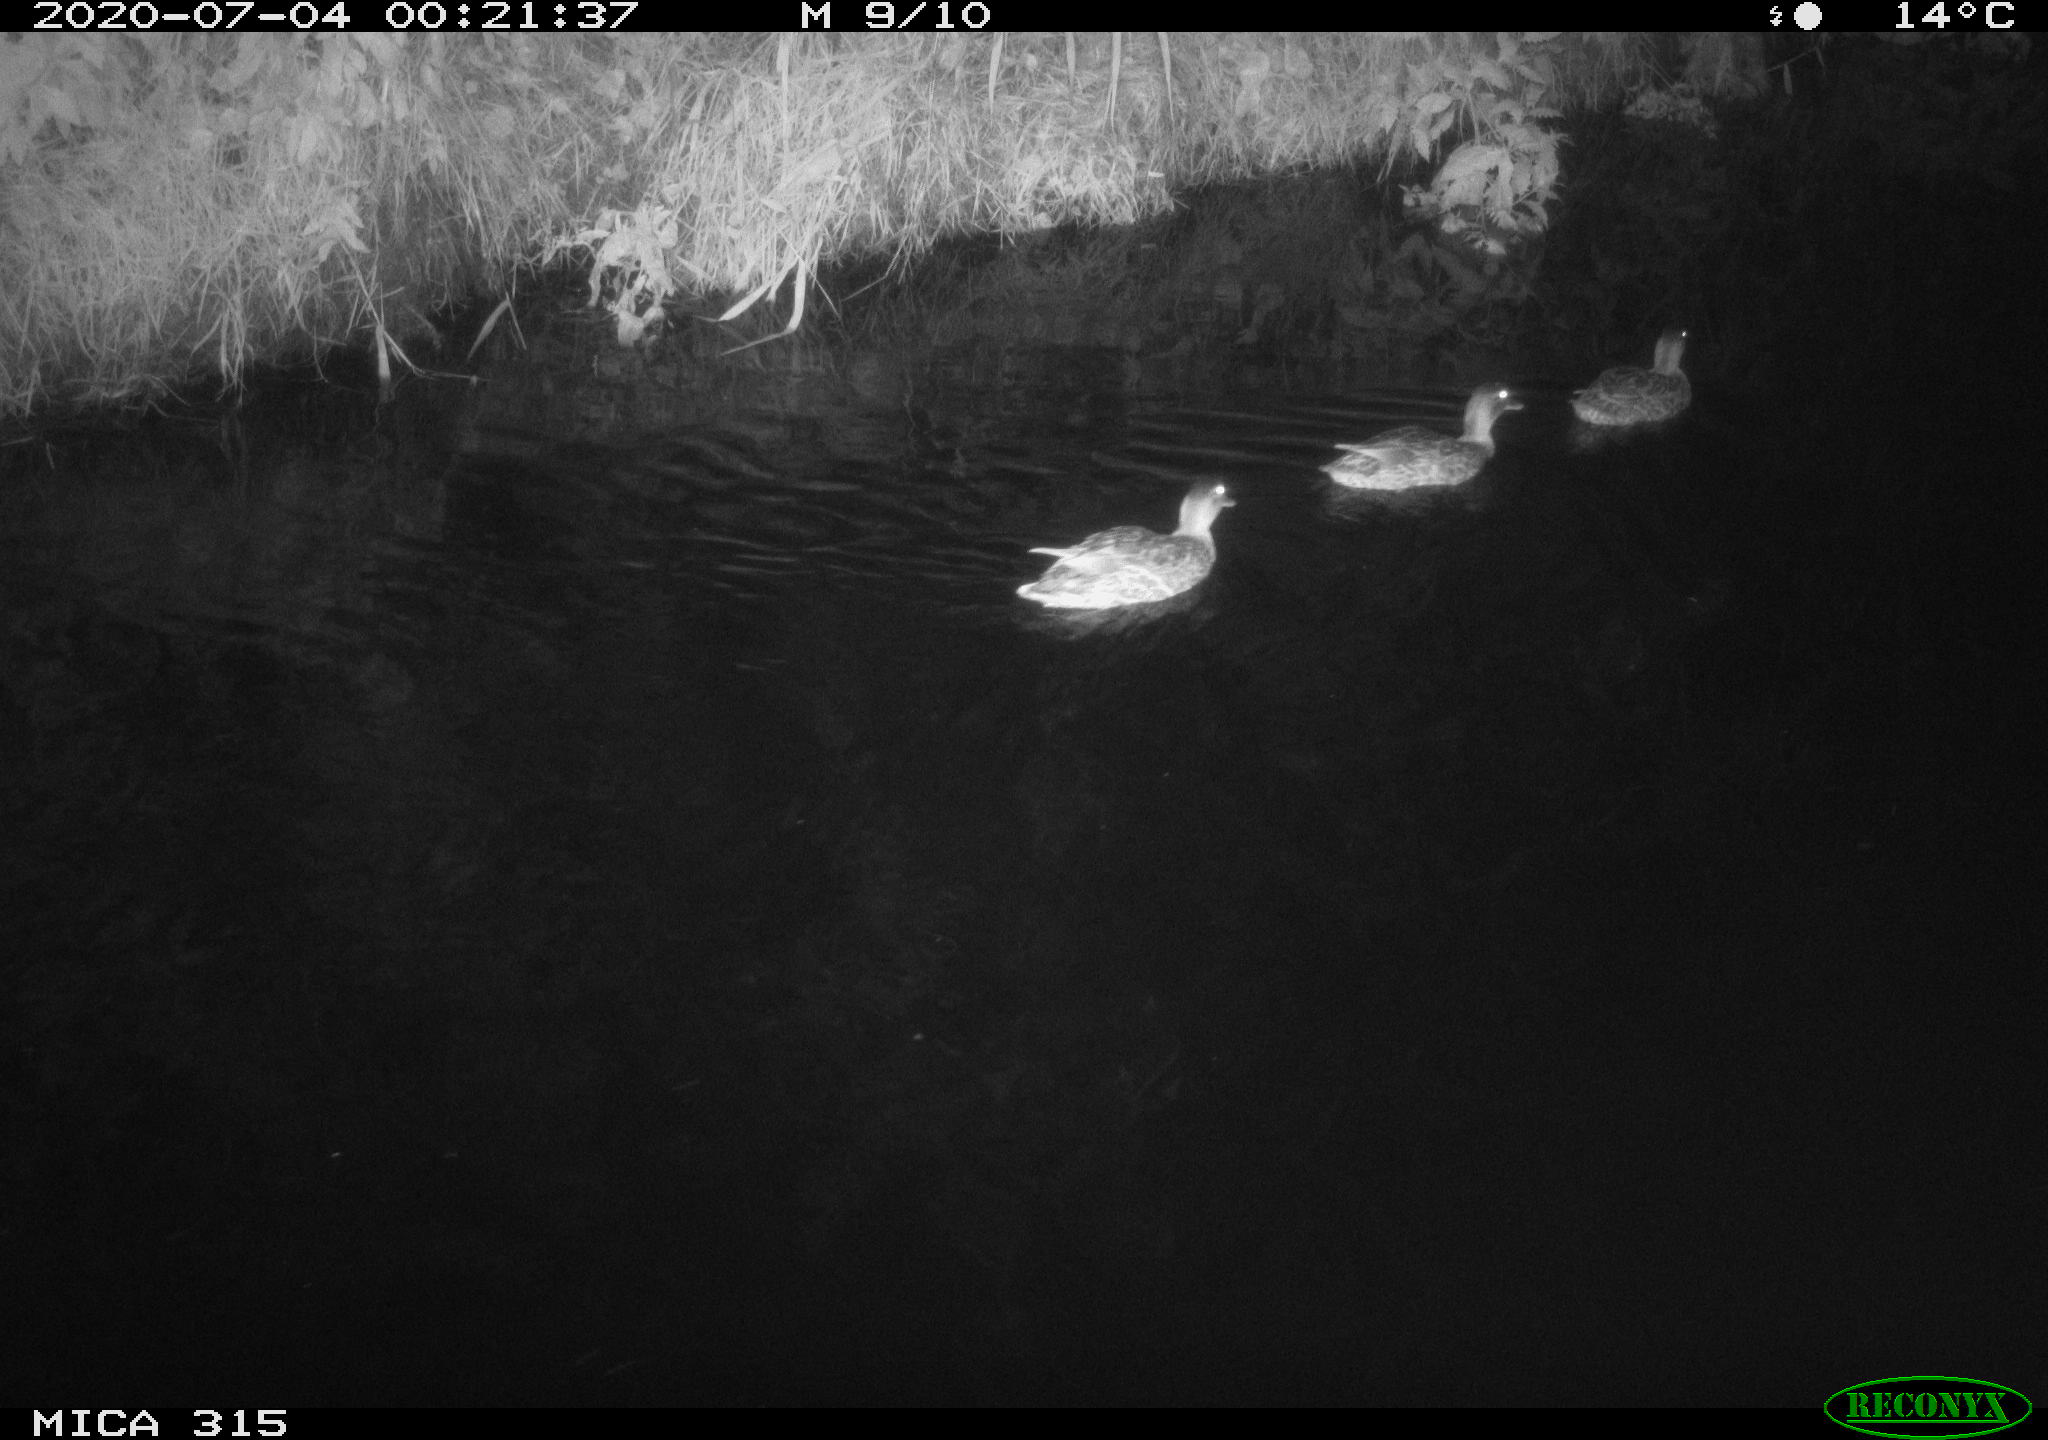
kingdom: Animalia
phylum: Chordata
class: Aves
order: Anseriformes
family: Anatidae
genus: Anas
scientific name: Anas platyrhynchos
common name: Mallard
